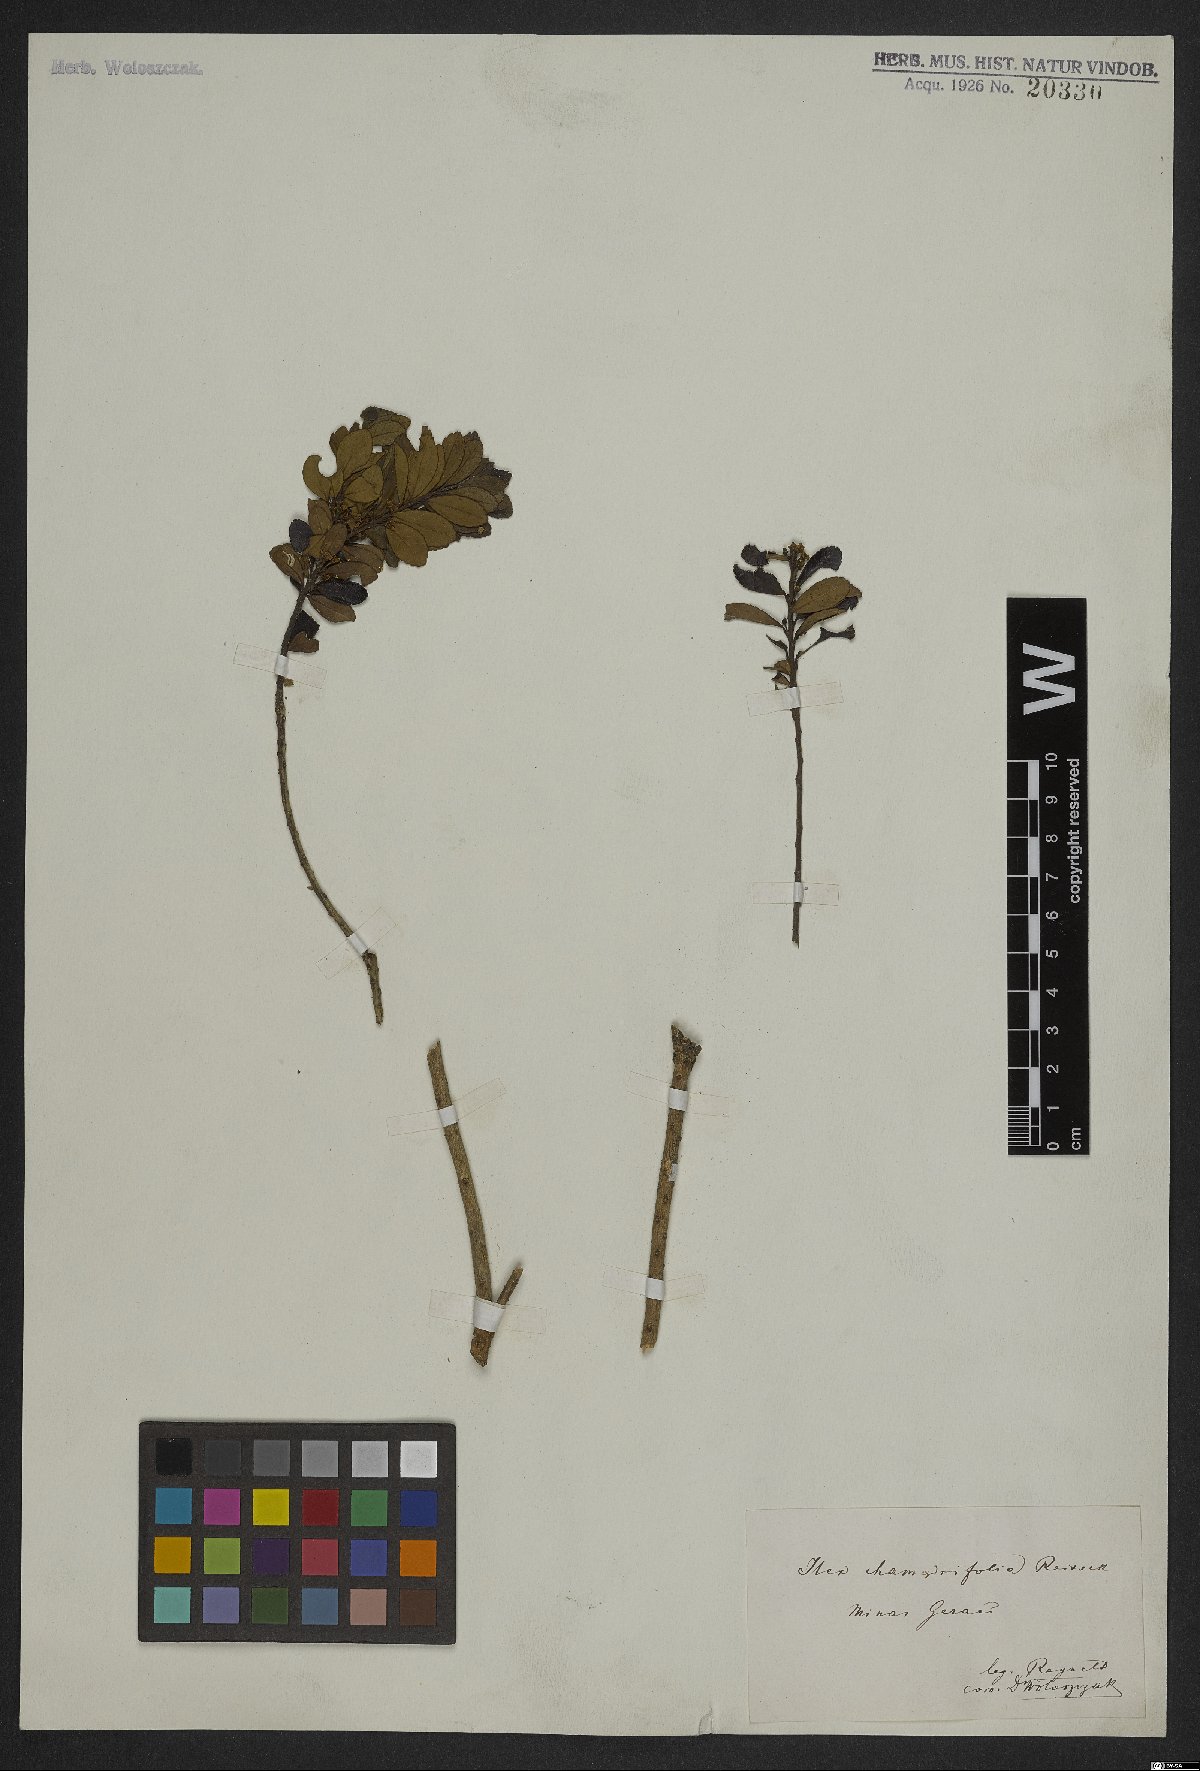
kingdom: Plantae
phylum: Tracheophyta
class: Magnoliopsida
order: Aquifoliales
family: Aquifoliaceae
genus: Ilex
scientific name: Ilex chamaedryfolia
